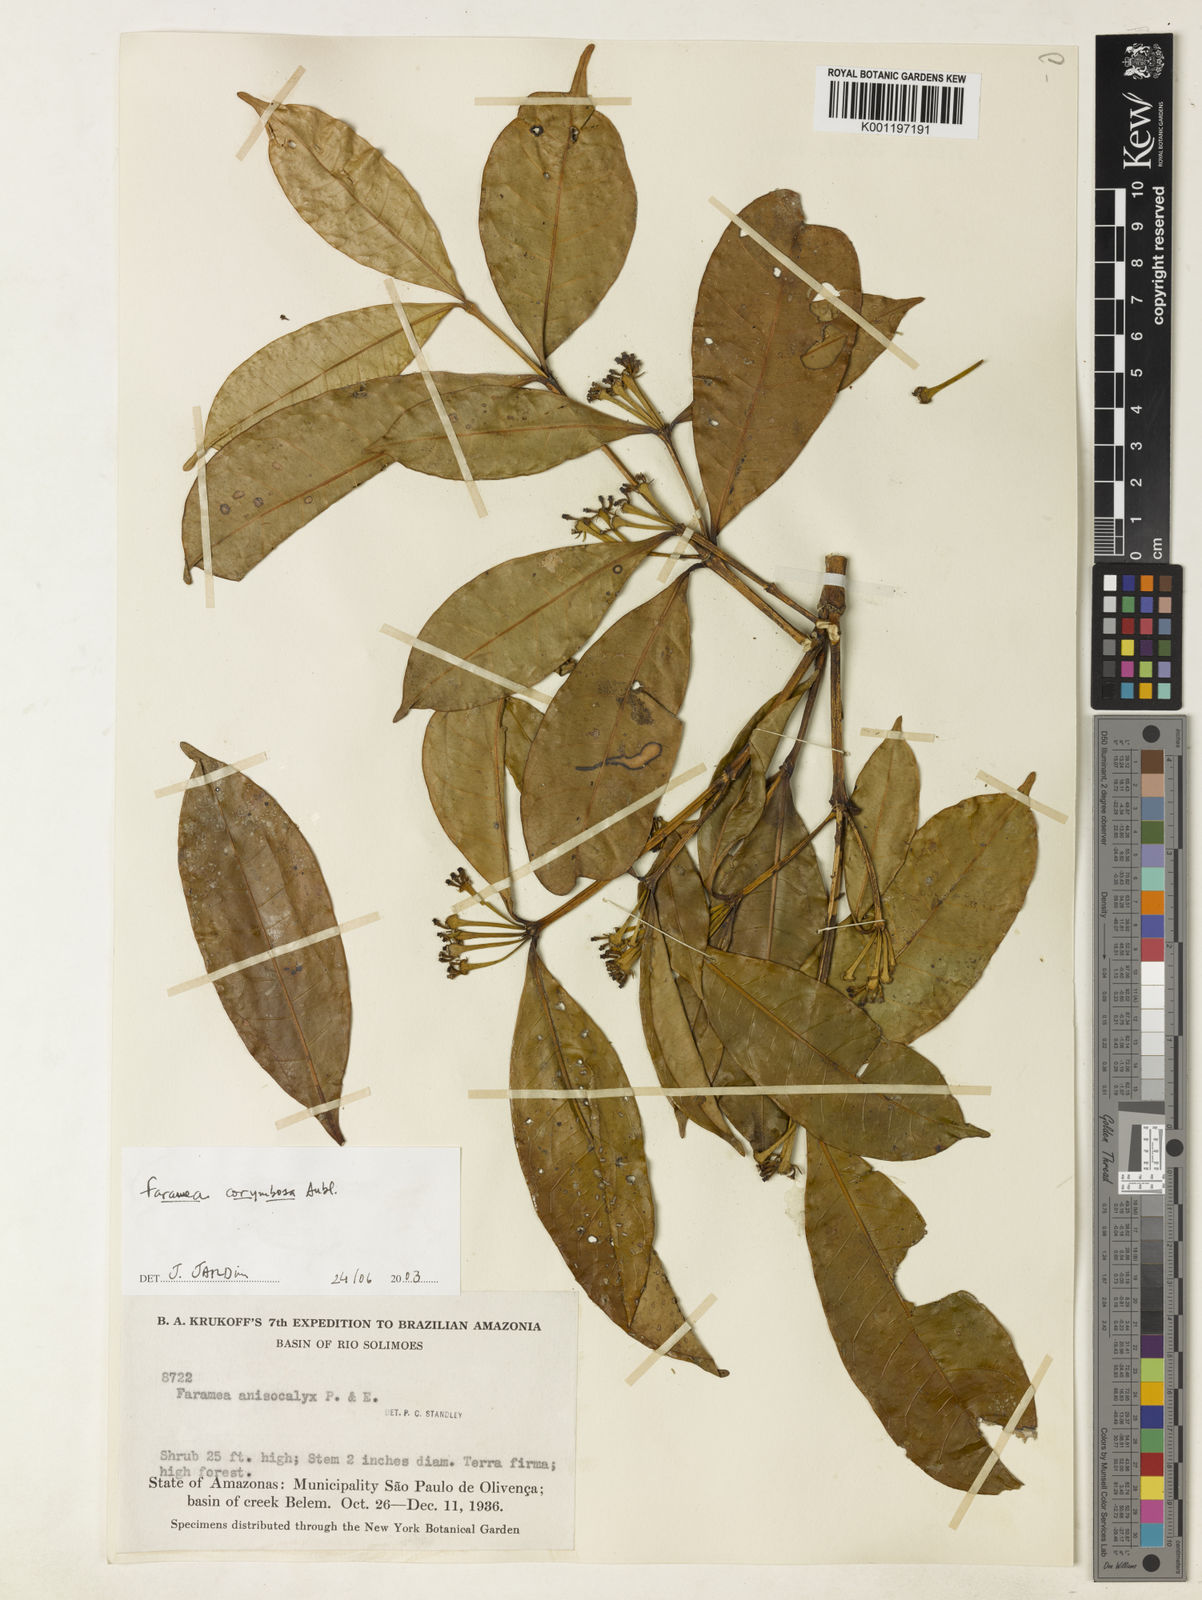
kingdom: Plantae
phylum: Tracheophyta
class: Magnoliopsida
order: Gentianales
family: Rubiaceae
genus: Faramea
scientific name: Faramea corymbosa
